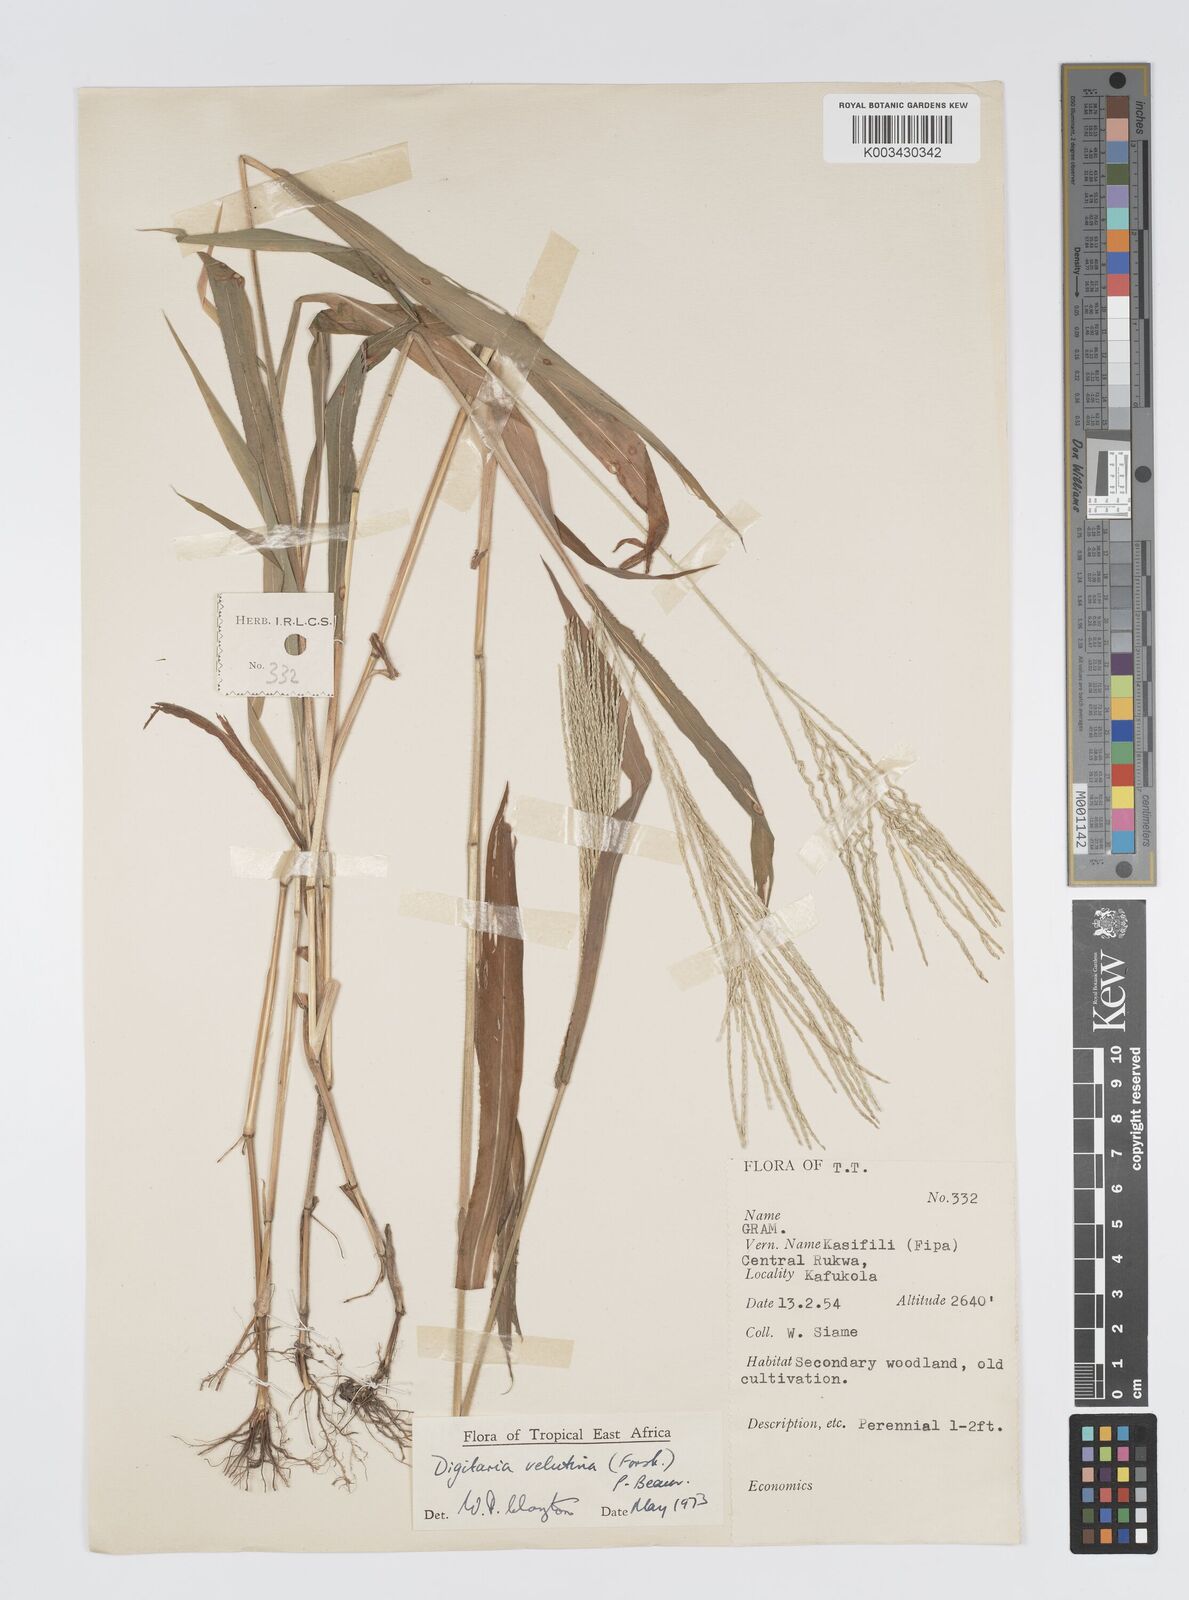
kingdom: Plantae
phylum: Tracheophyta
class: Liliopsida
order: Poales
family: Poaceae
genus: Digitaria
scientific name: Digitaria velutina
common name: Long-plume finger grass
